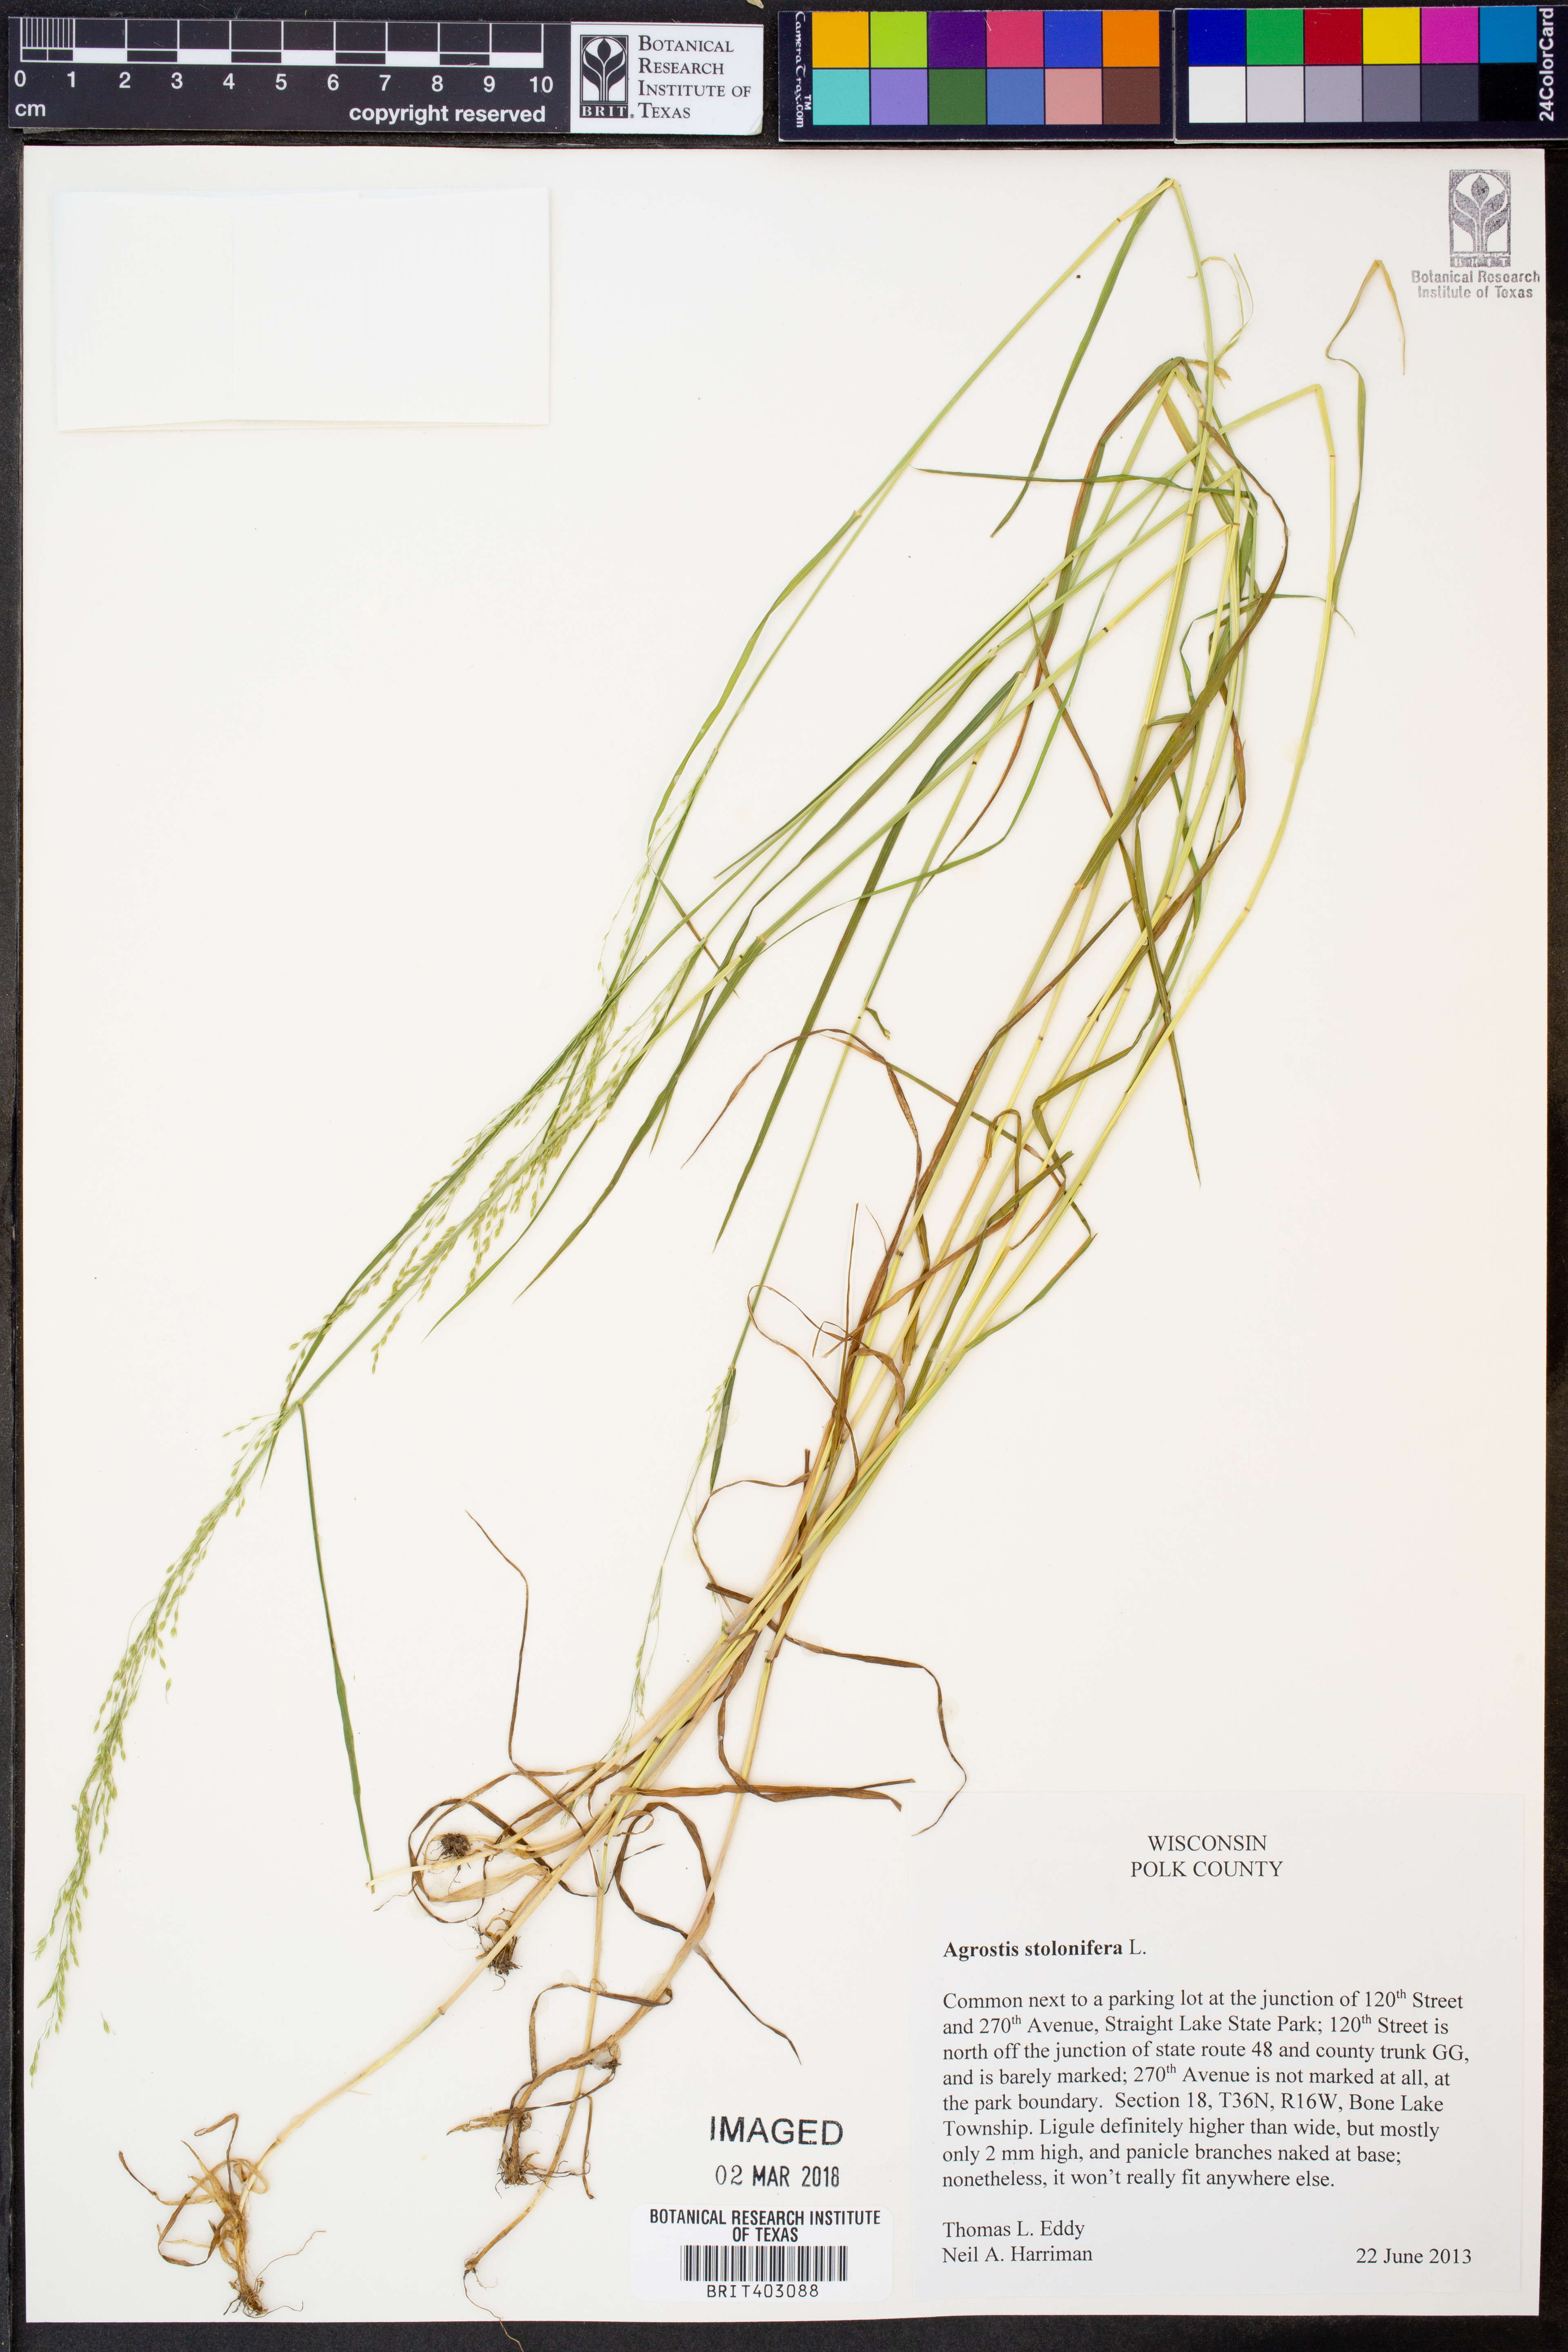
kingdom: Plantae
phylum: Tracheophyta
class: Liliopsida
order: Poales
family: Poaceae
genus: Agrostis
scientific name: Agrostis stolonifera
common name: Creeping bentgrass
